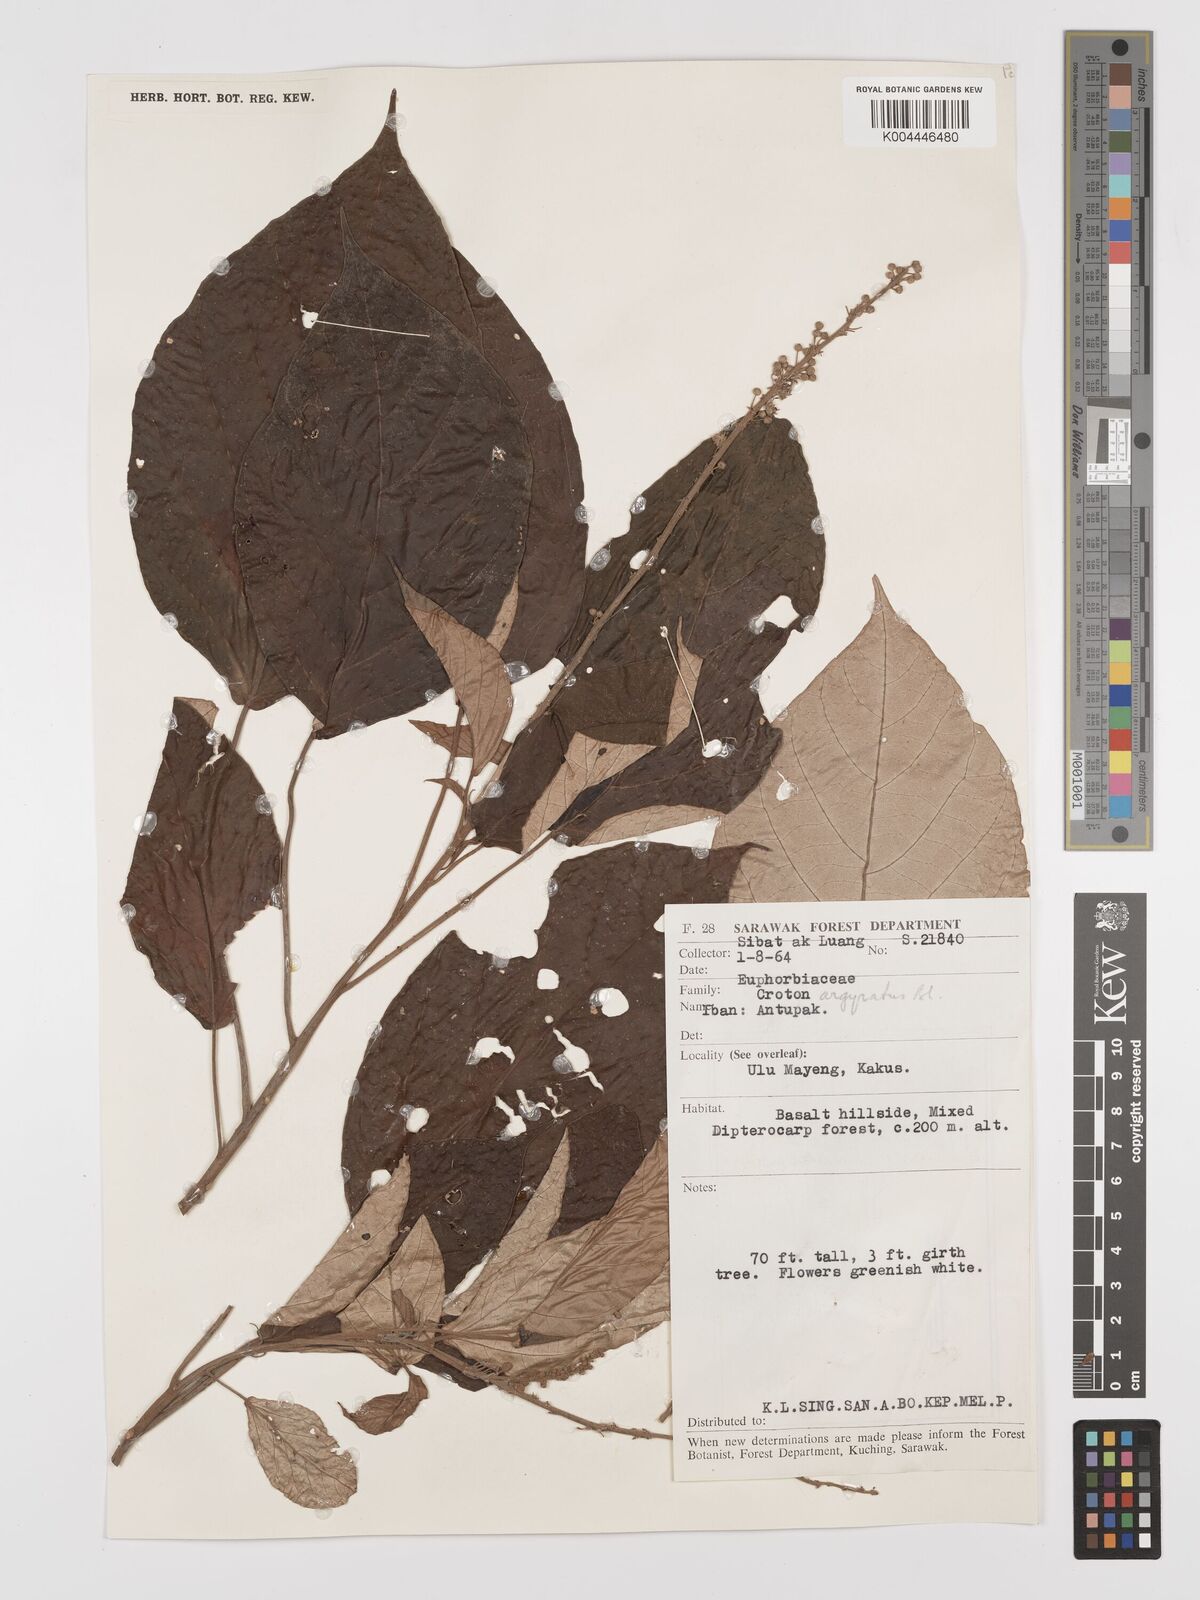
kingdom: Plantae
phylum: Tracheophyta
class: Magnoliopsida
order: Malpighiales
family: Euphorbiaceae
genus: Croton
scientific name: Croton argyratus
